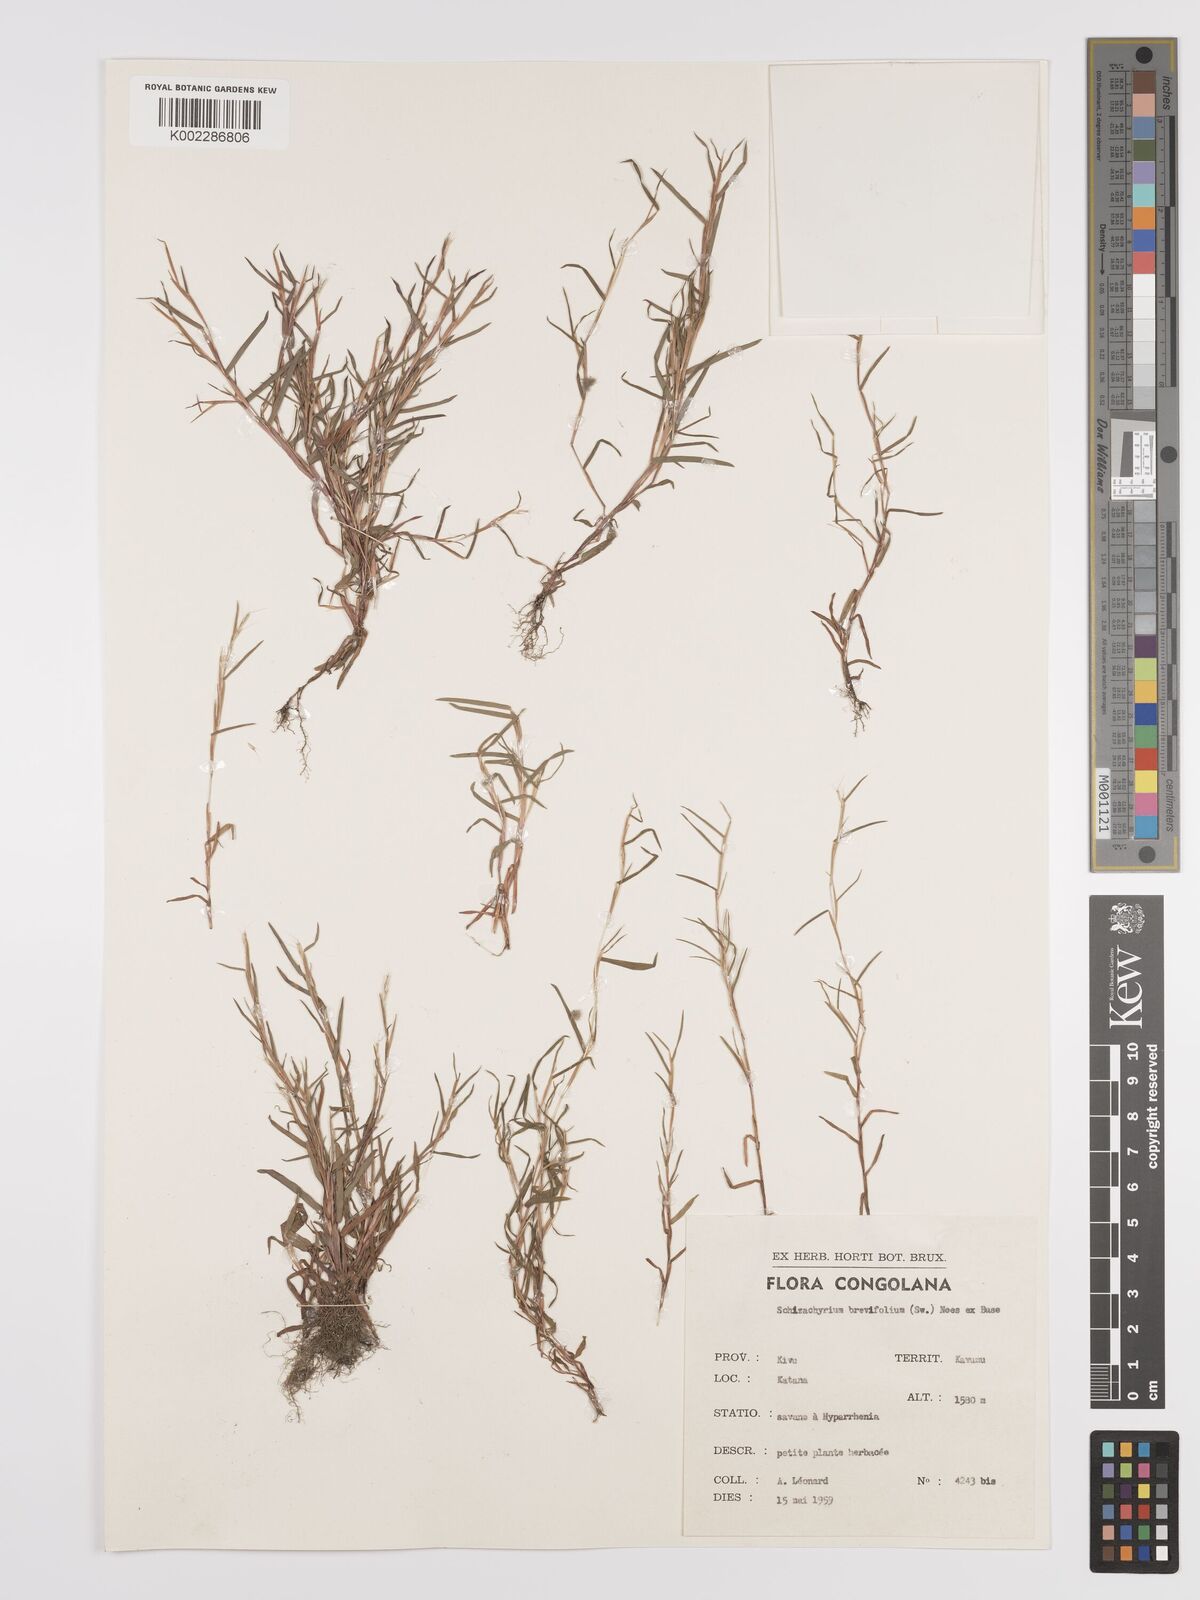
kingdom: Plantae
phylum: Tracheophyta
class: Liliopsida
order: Poales
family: Poaceae
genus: Schizachyrium
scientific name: Schizachyrium brevifolium
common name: Serillo dulce
